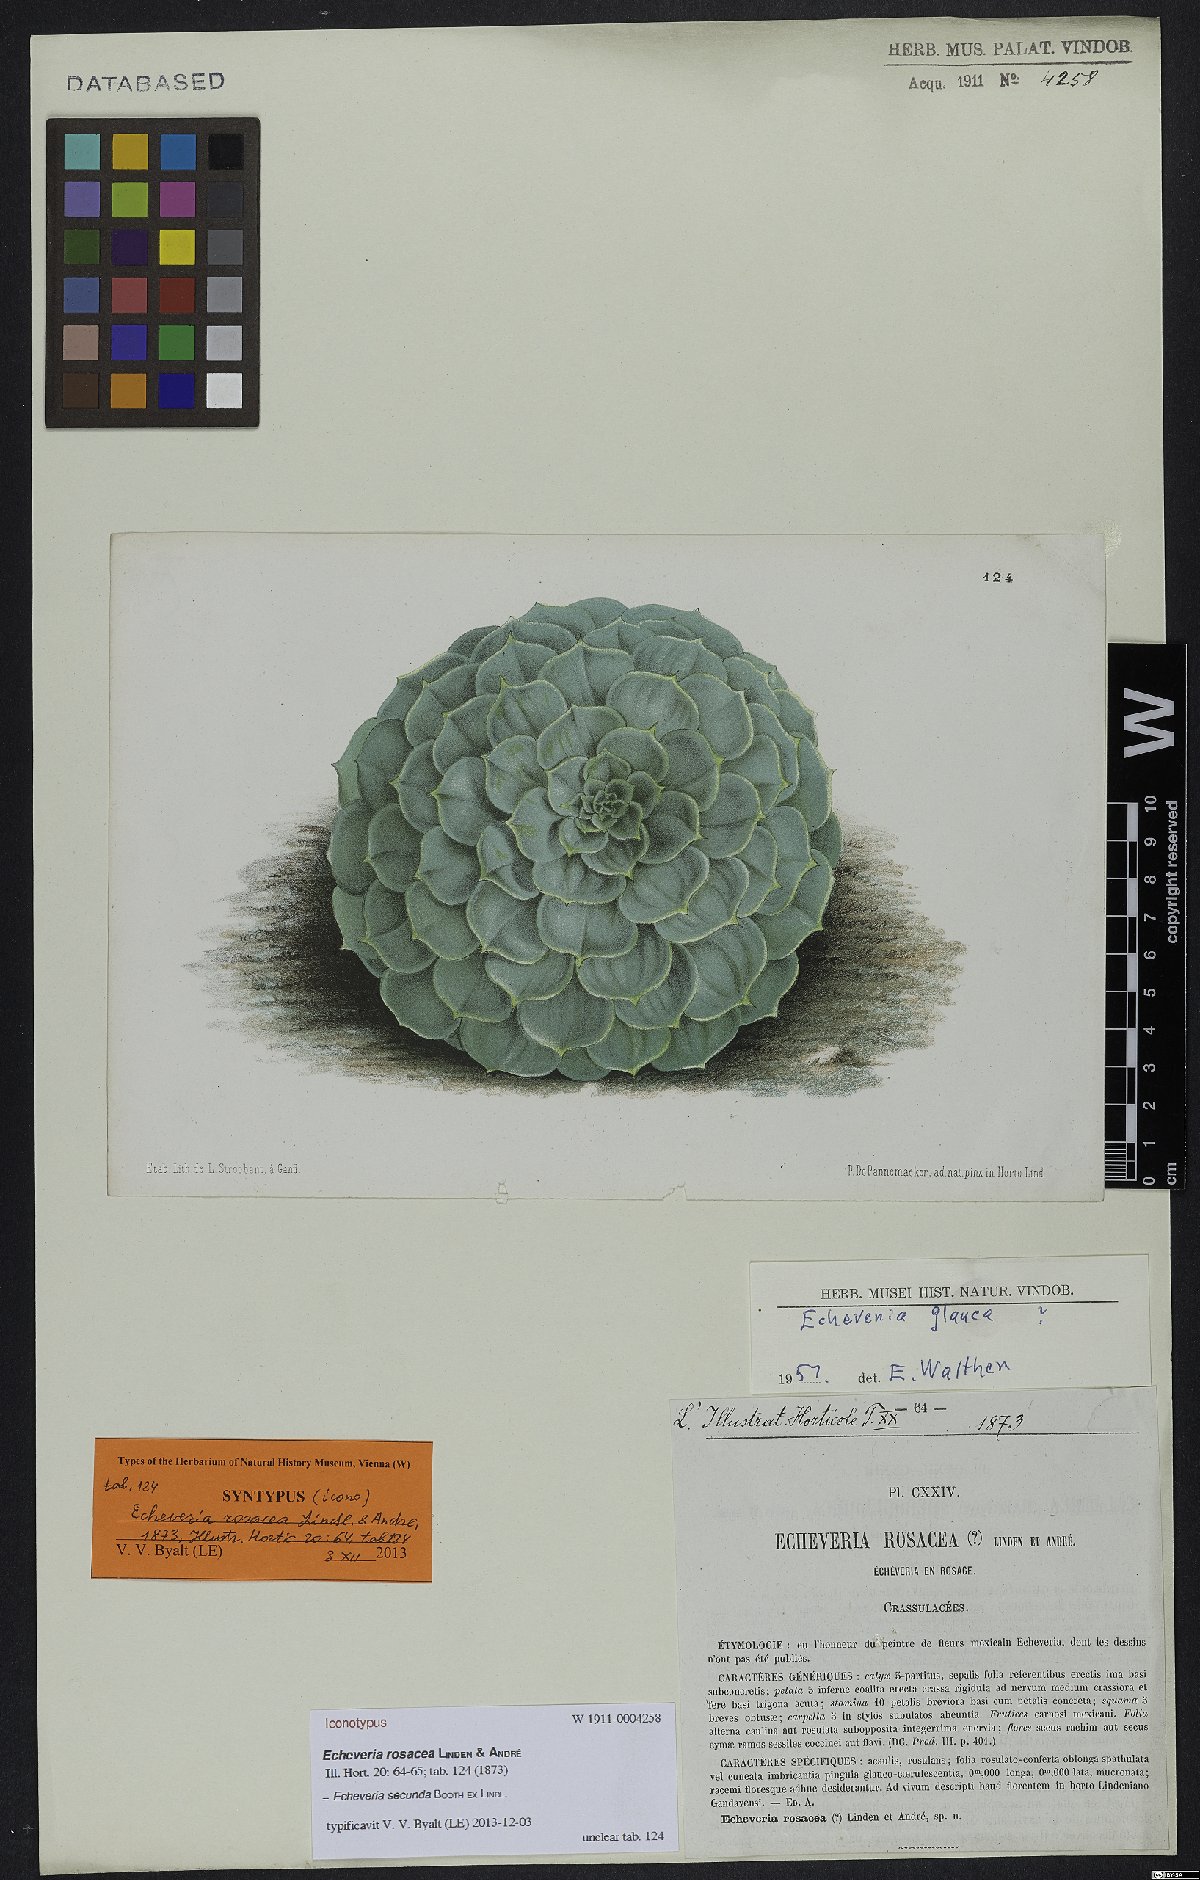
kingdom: Plantae
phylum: Tracheophyta
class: Magnoliopsida
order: Saxifragales
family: Crassulaceae
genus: Echeveria
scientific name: Echeveria secunda
